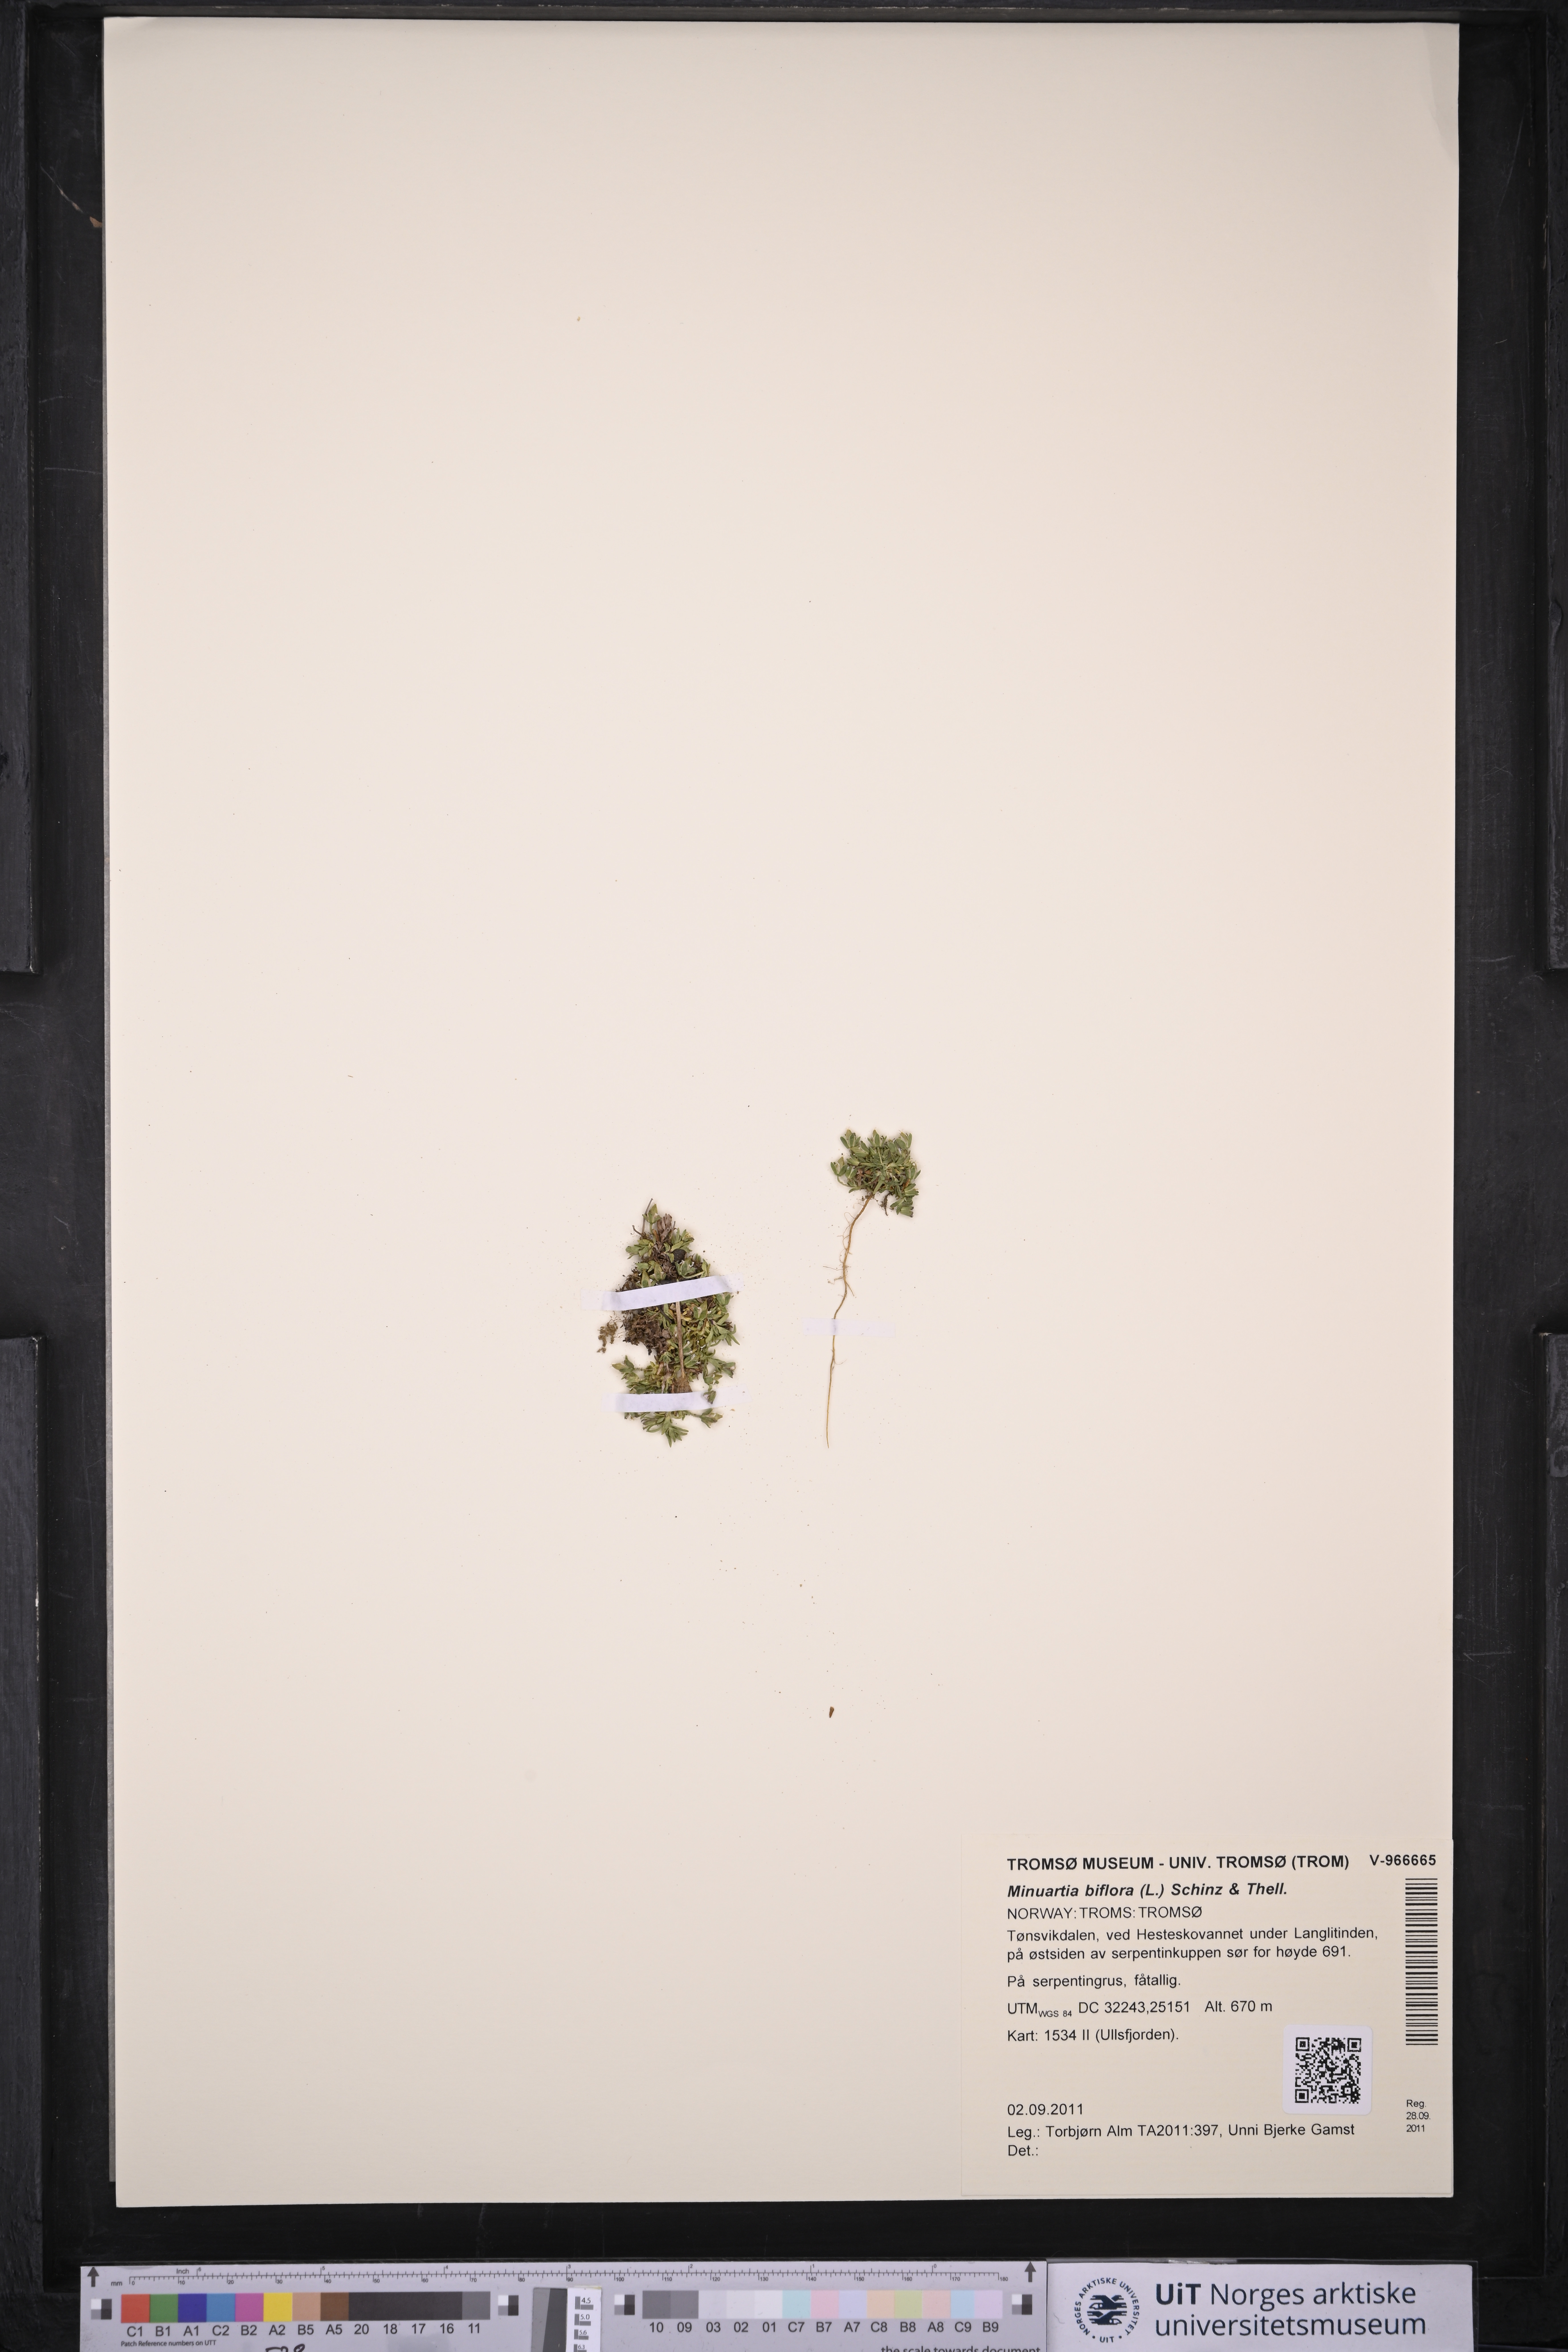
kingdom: Plantae
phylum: Tracheophyta
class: Magnoliopsida
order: Caryophyllales
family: Caryophyllaceae
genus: Cherleria
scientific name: Cherleria biflora
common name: Mountain sandwort
